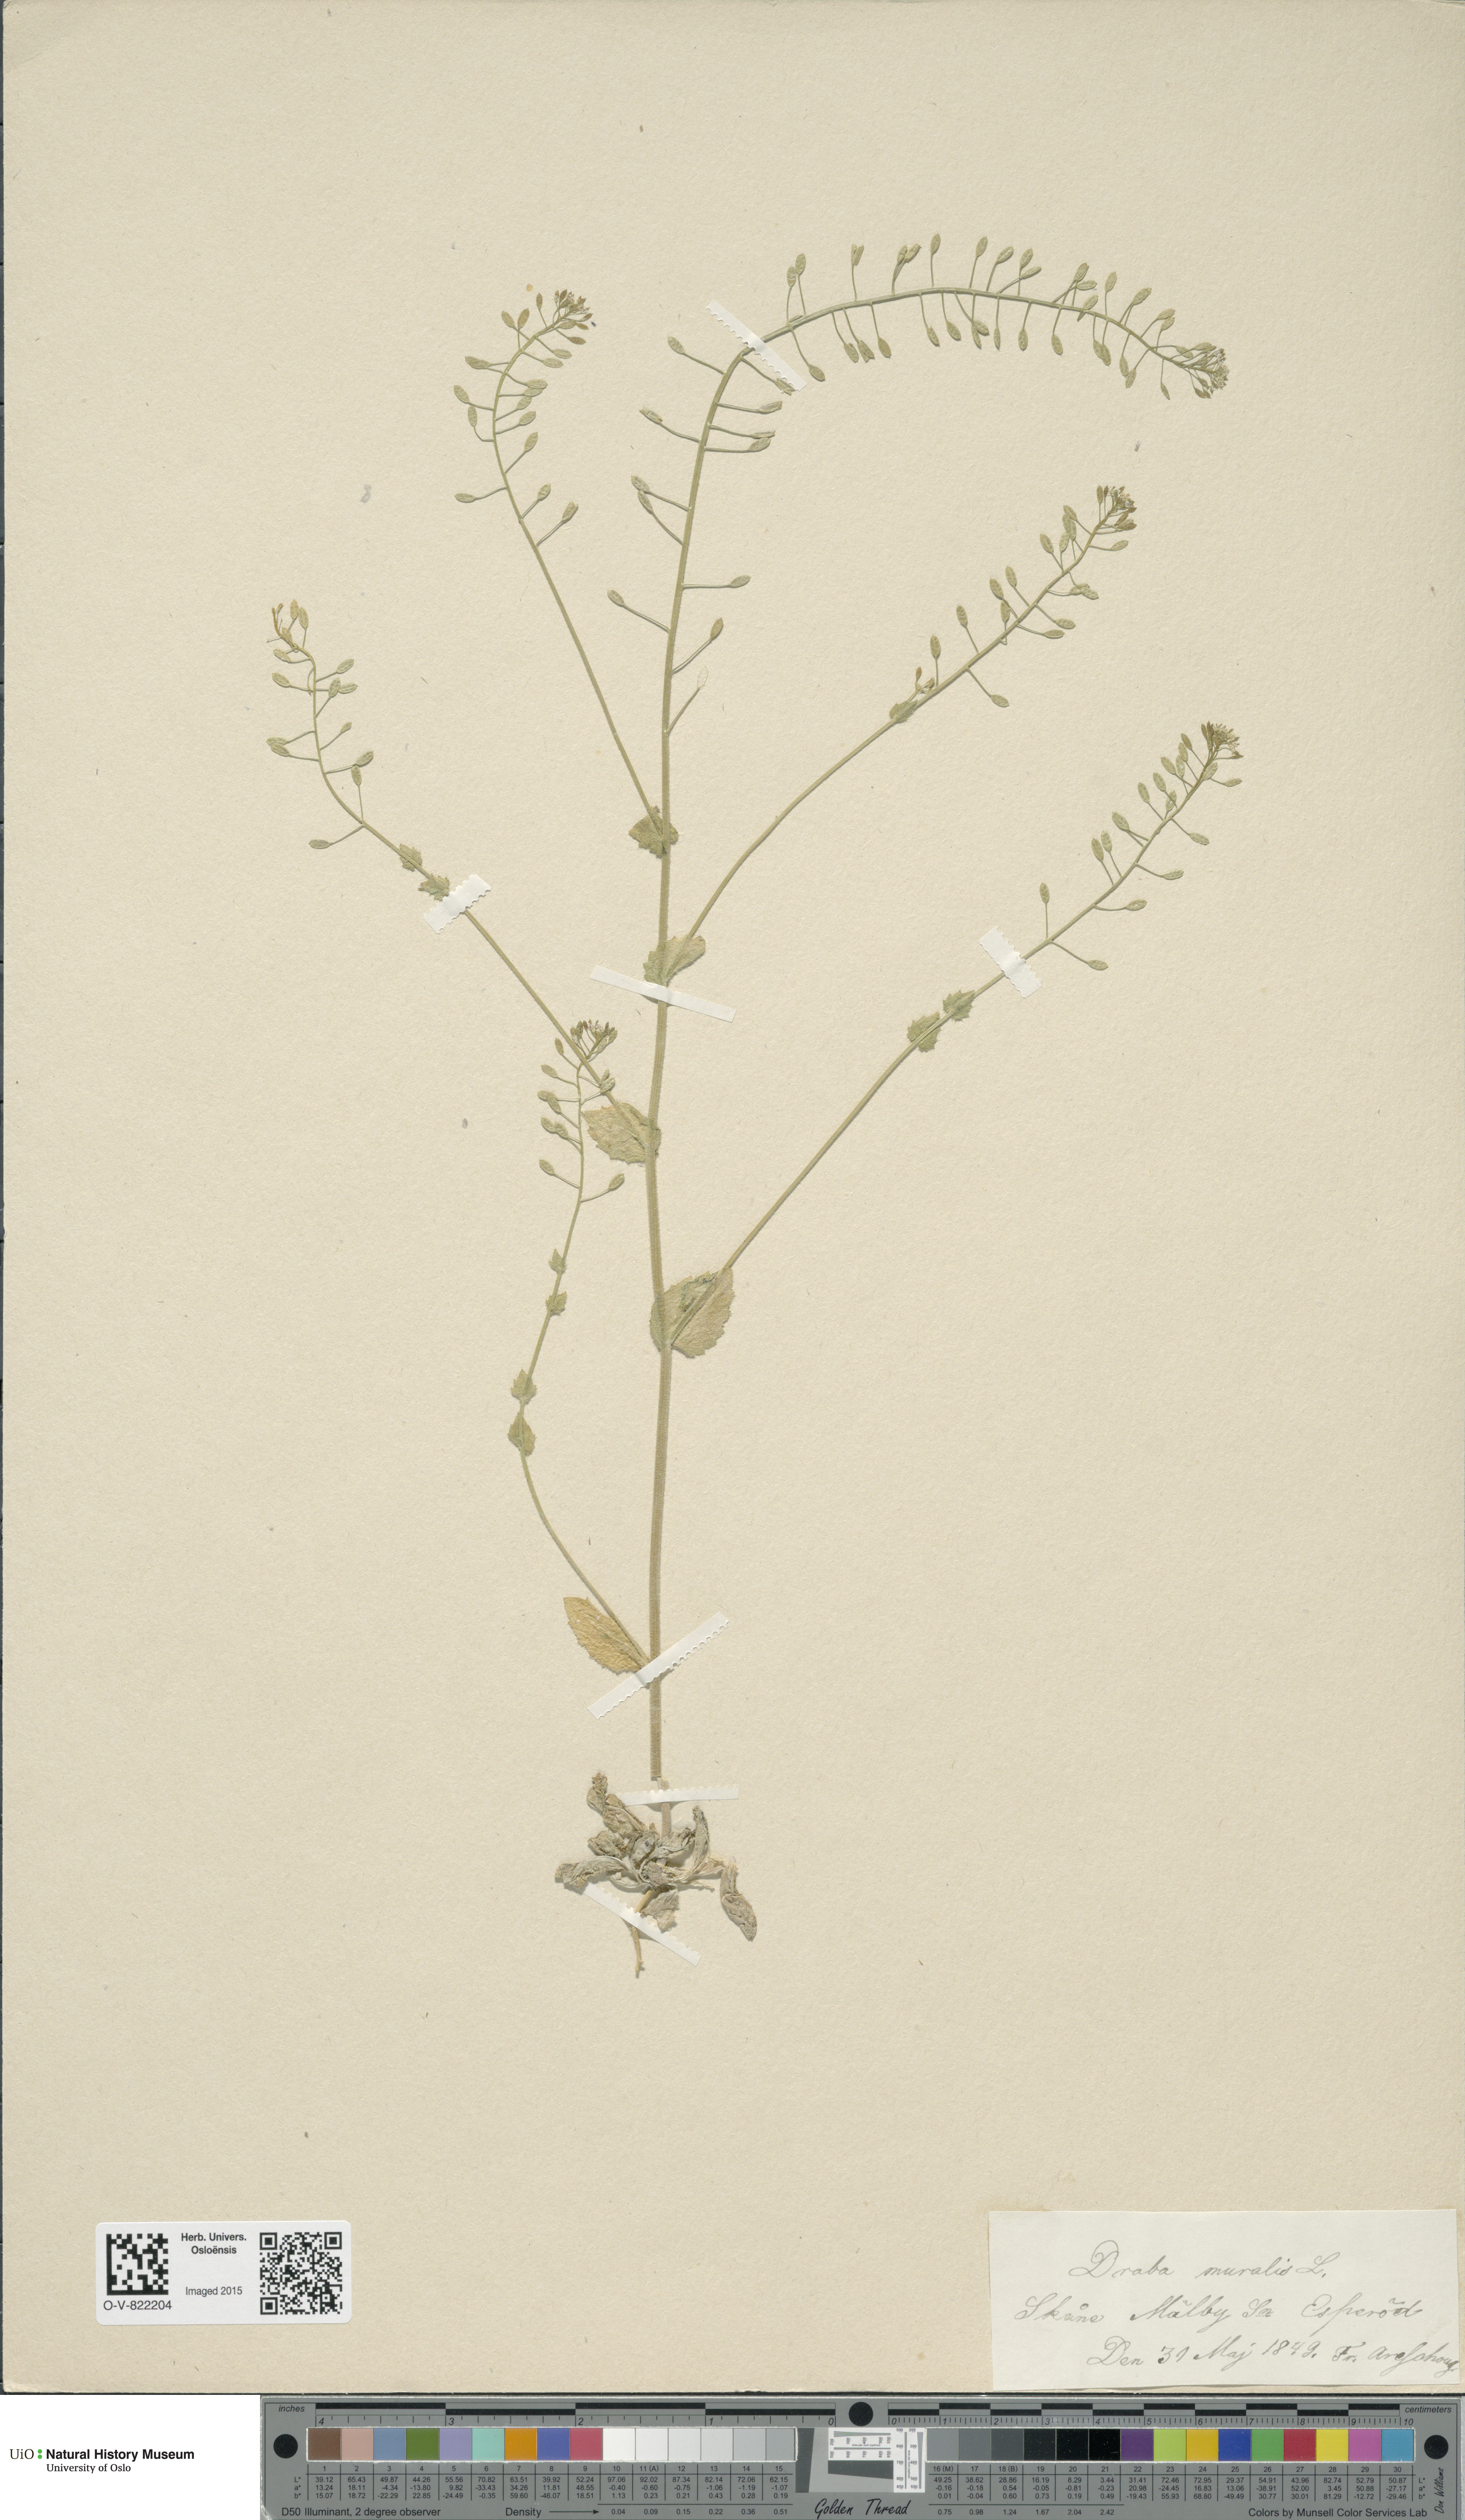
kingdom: Plantae
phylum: Tracheophyta
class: Magnoliopsida
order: Brassicales
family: Brassicaceae
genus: Drabella
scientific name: Drabella muralis
